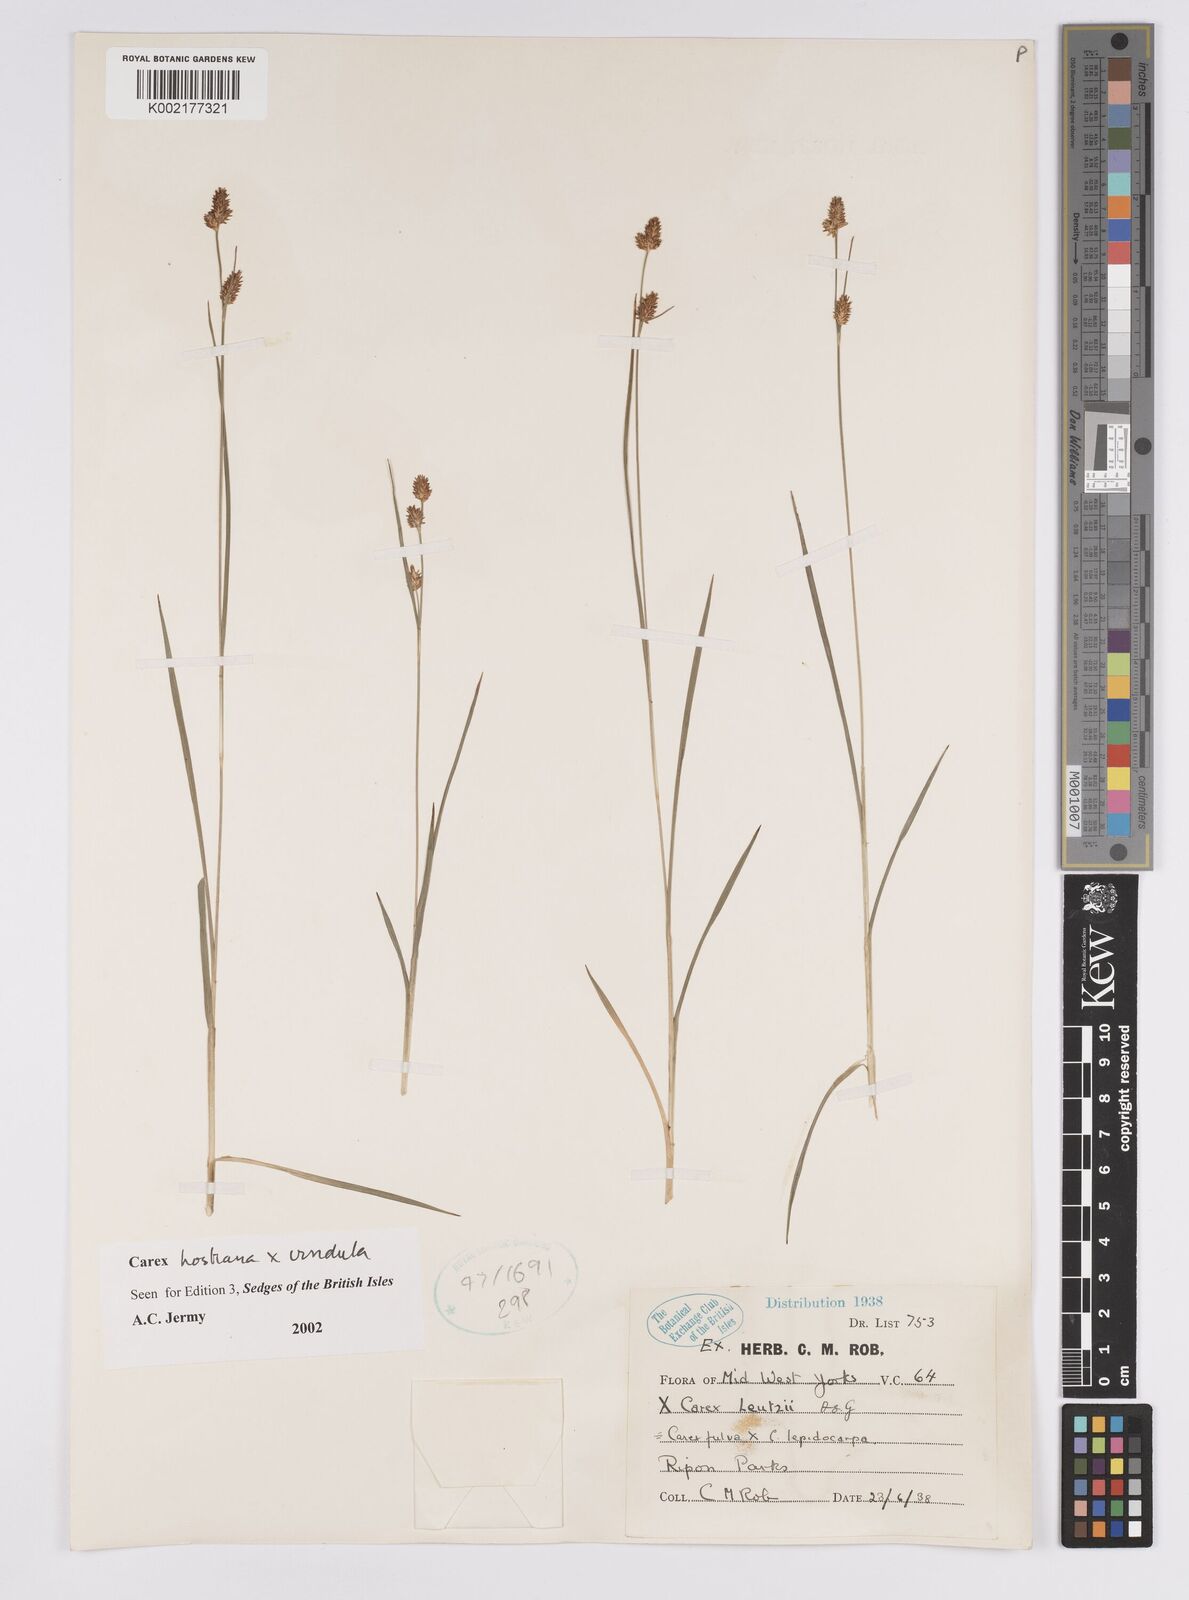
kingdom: Plantae
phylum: Tracheophyta
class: Liliopsida
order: Poales
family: Cyperaceae
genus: Carex
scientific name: Carex hostiana
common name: Tawny sedge
